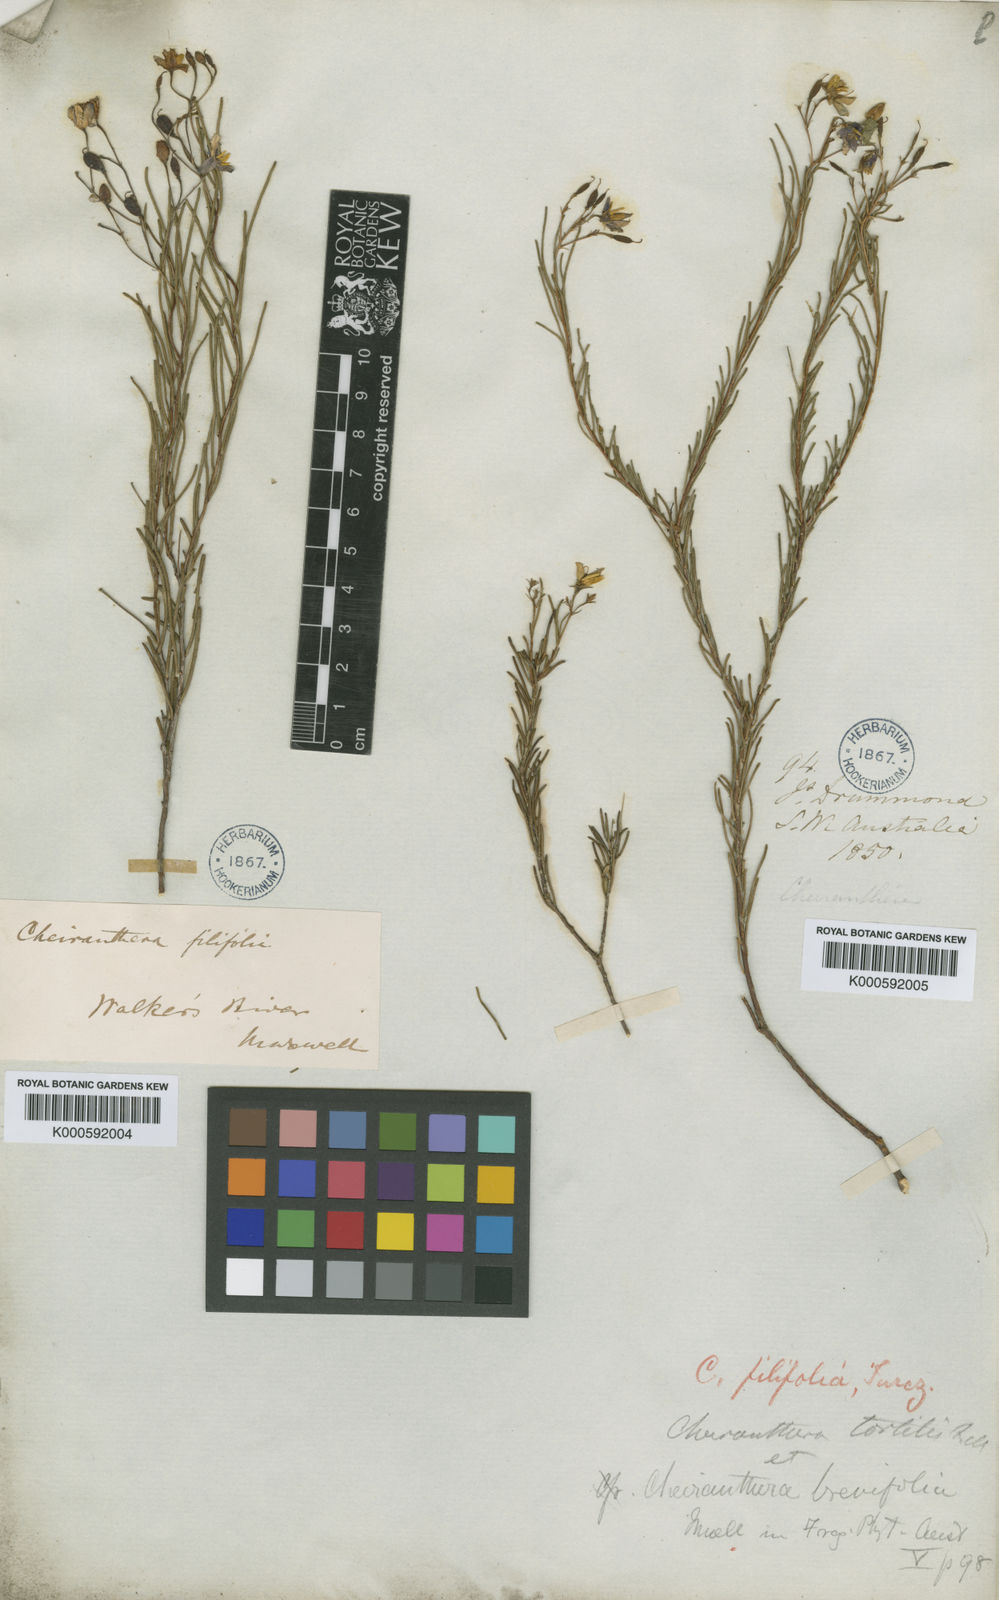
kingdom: Plantae
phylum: Tracheophyta
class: Magnoliopsida
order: Apiales
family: Pittosporaceae
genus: Cheiranthera
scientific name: Cheiranthera filifolia
